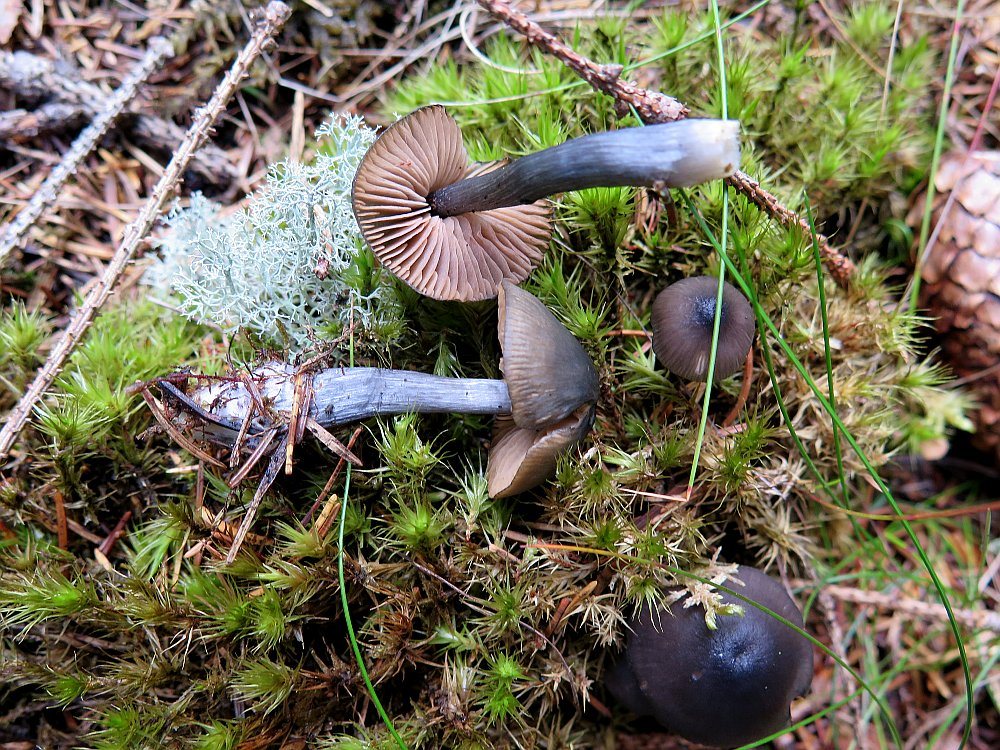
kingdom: Fungi
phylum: Basidiomycota
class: Agaricomycetes
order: Agaricales
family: Entolomataceae
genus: Entocybe
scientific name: Entocybe nitida
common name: stålblå rødblad
